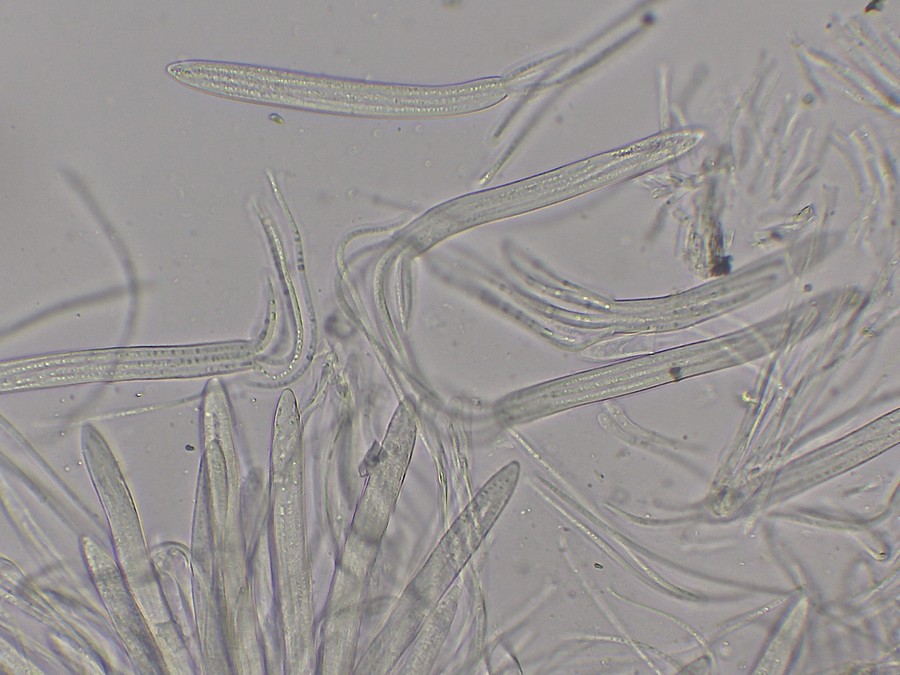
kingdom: Fungi
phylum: Ascomycota
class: Leotiomycetes
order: Rhytismatales
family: Rhytismataceae
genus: Lophodermium
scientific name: Lophodermium pinastri
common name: fyrre-fureplet
